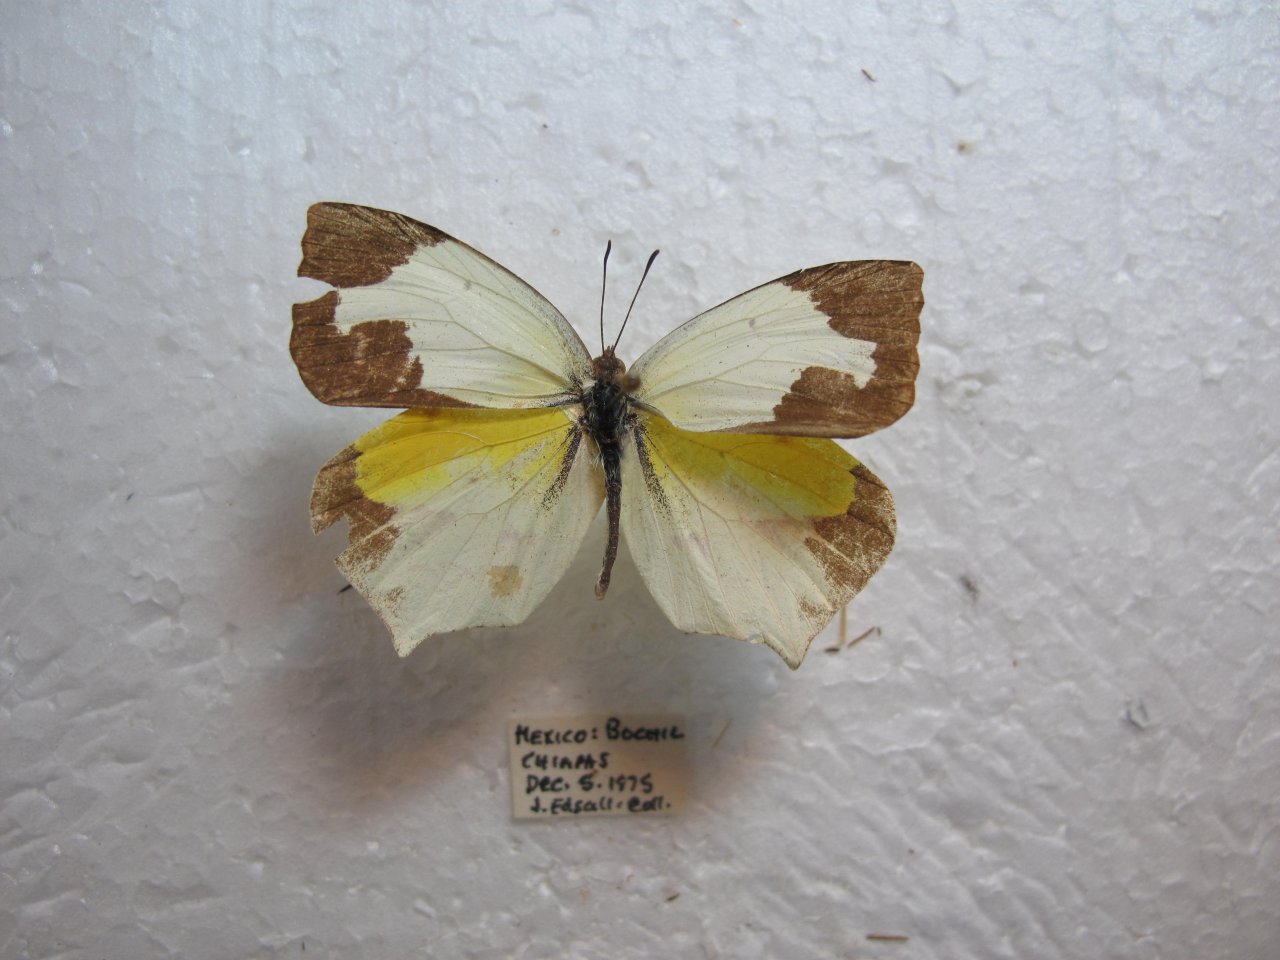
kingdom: Animalia
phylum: Arthropoda
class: Insecta
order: Lepidoptera
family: Pieridae
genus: Eurema
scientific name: Eurema mexicana
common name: Mexican Yellow
